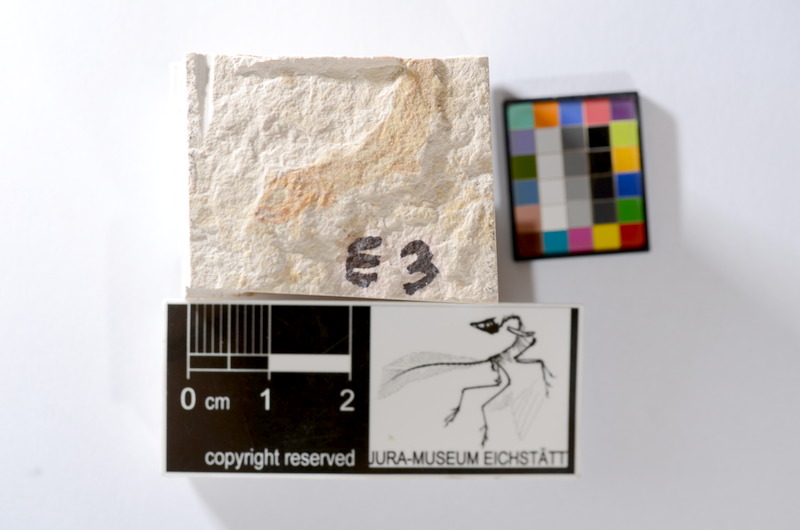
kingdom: Animalia
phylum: Chordata
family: Ascalaboidae
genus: Tharsis
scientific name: Tharsis dubius
